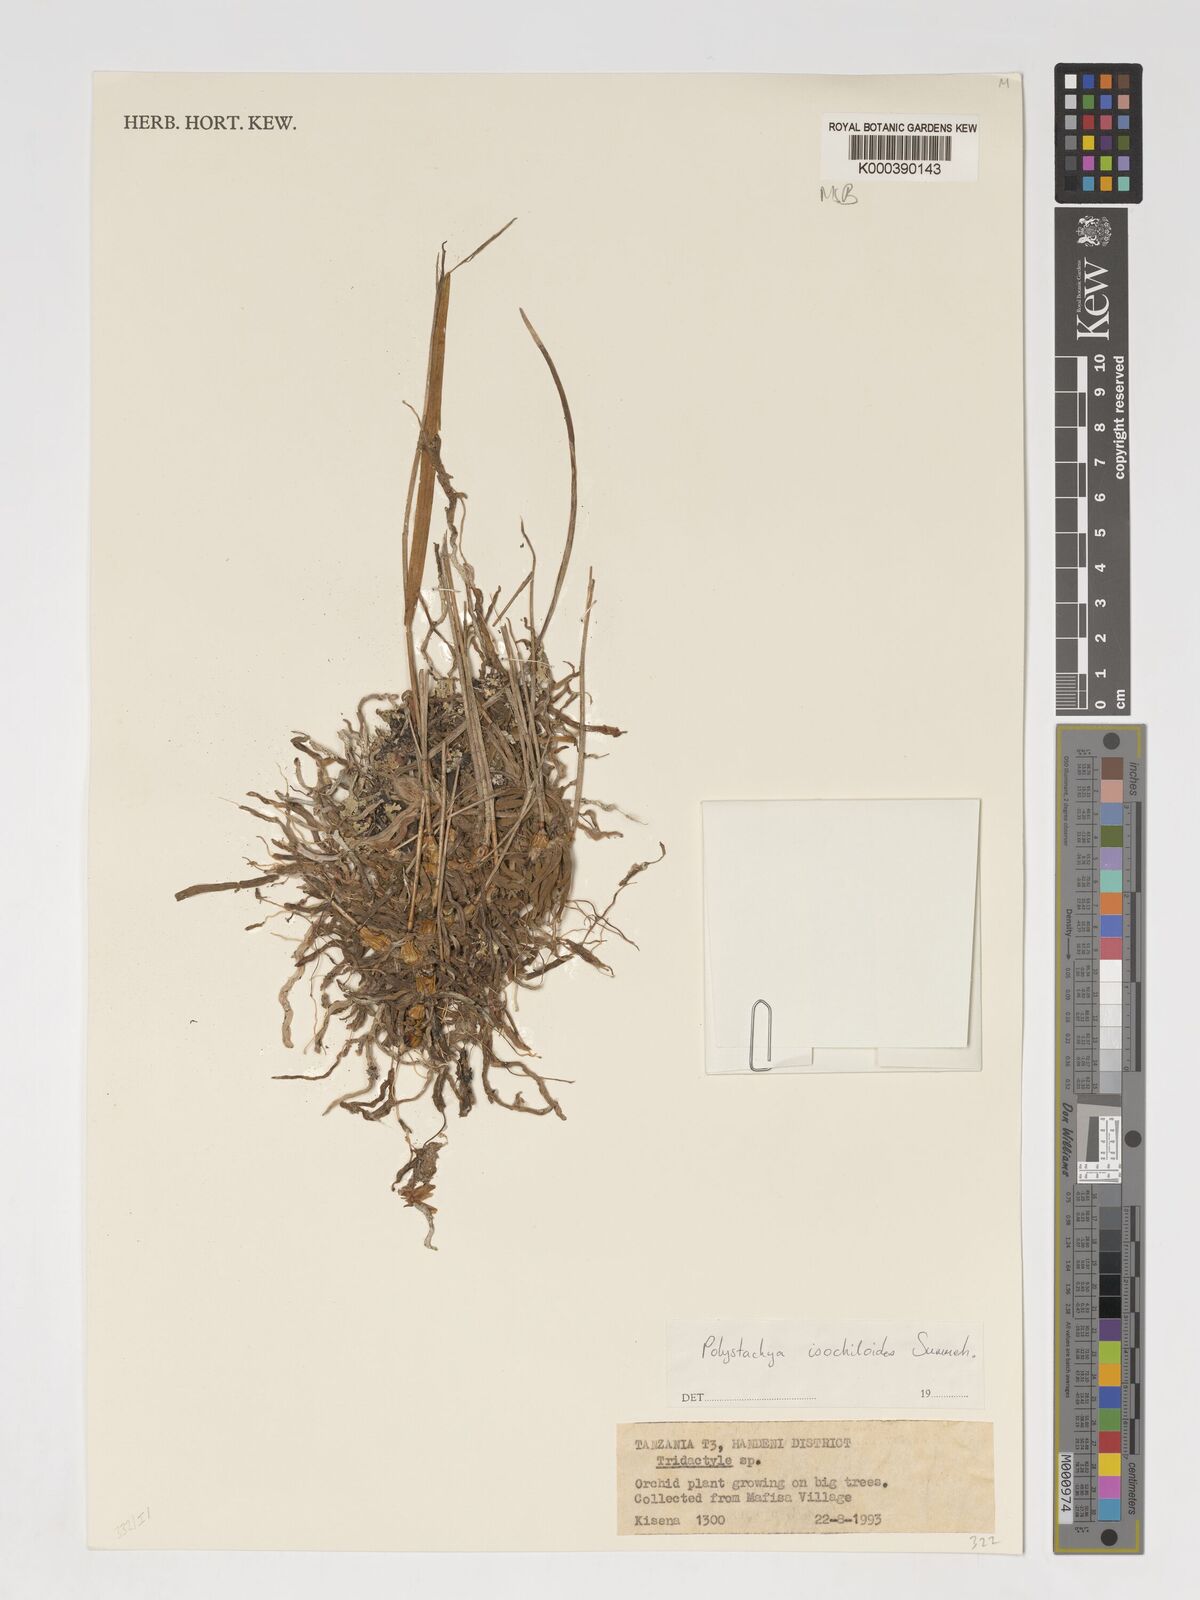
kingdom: Plantae
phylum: Tracheophyta
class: Liliopsida
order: Asparagales
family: Orchidaceae
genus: Polystachya
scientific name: Polystachya isochiloides
